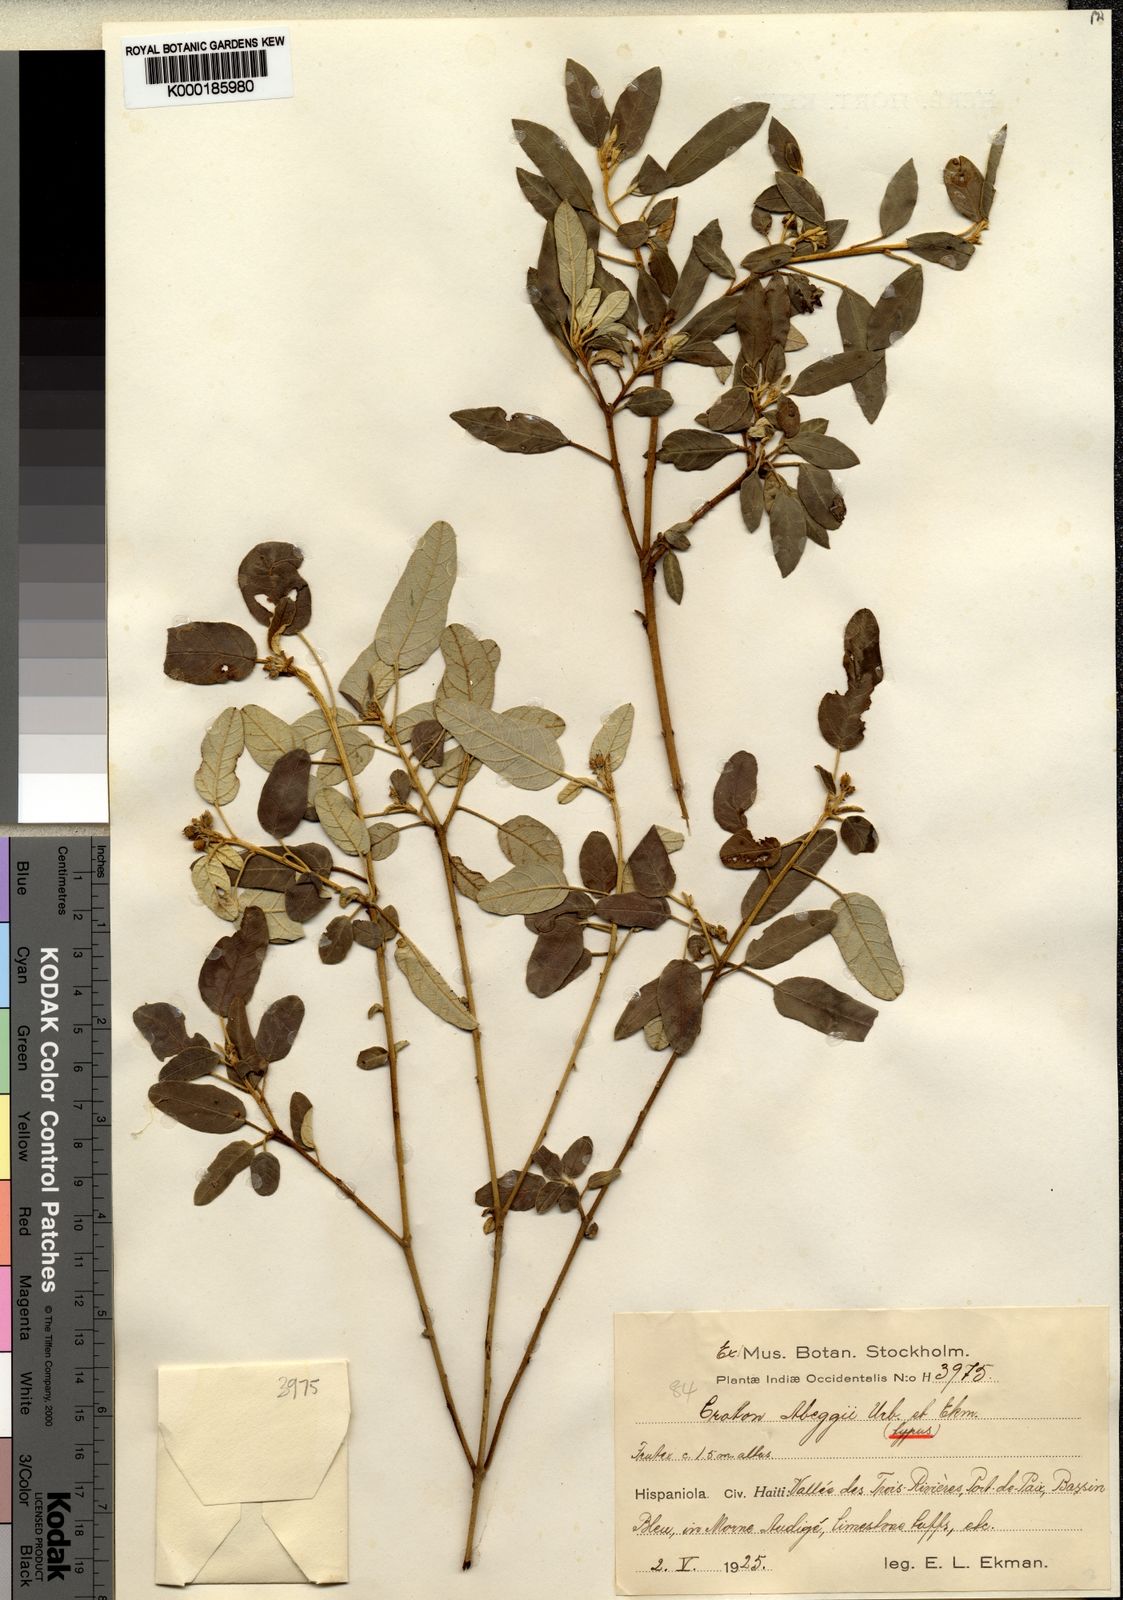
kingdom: Plantae
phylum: Tracheophyta
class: Magnoliopsida
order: Malpighiales
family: Euphorbiaceae
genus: Croton
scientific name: Croton abeggii
